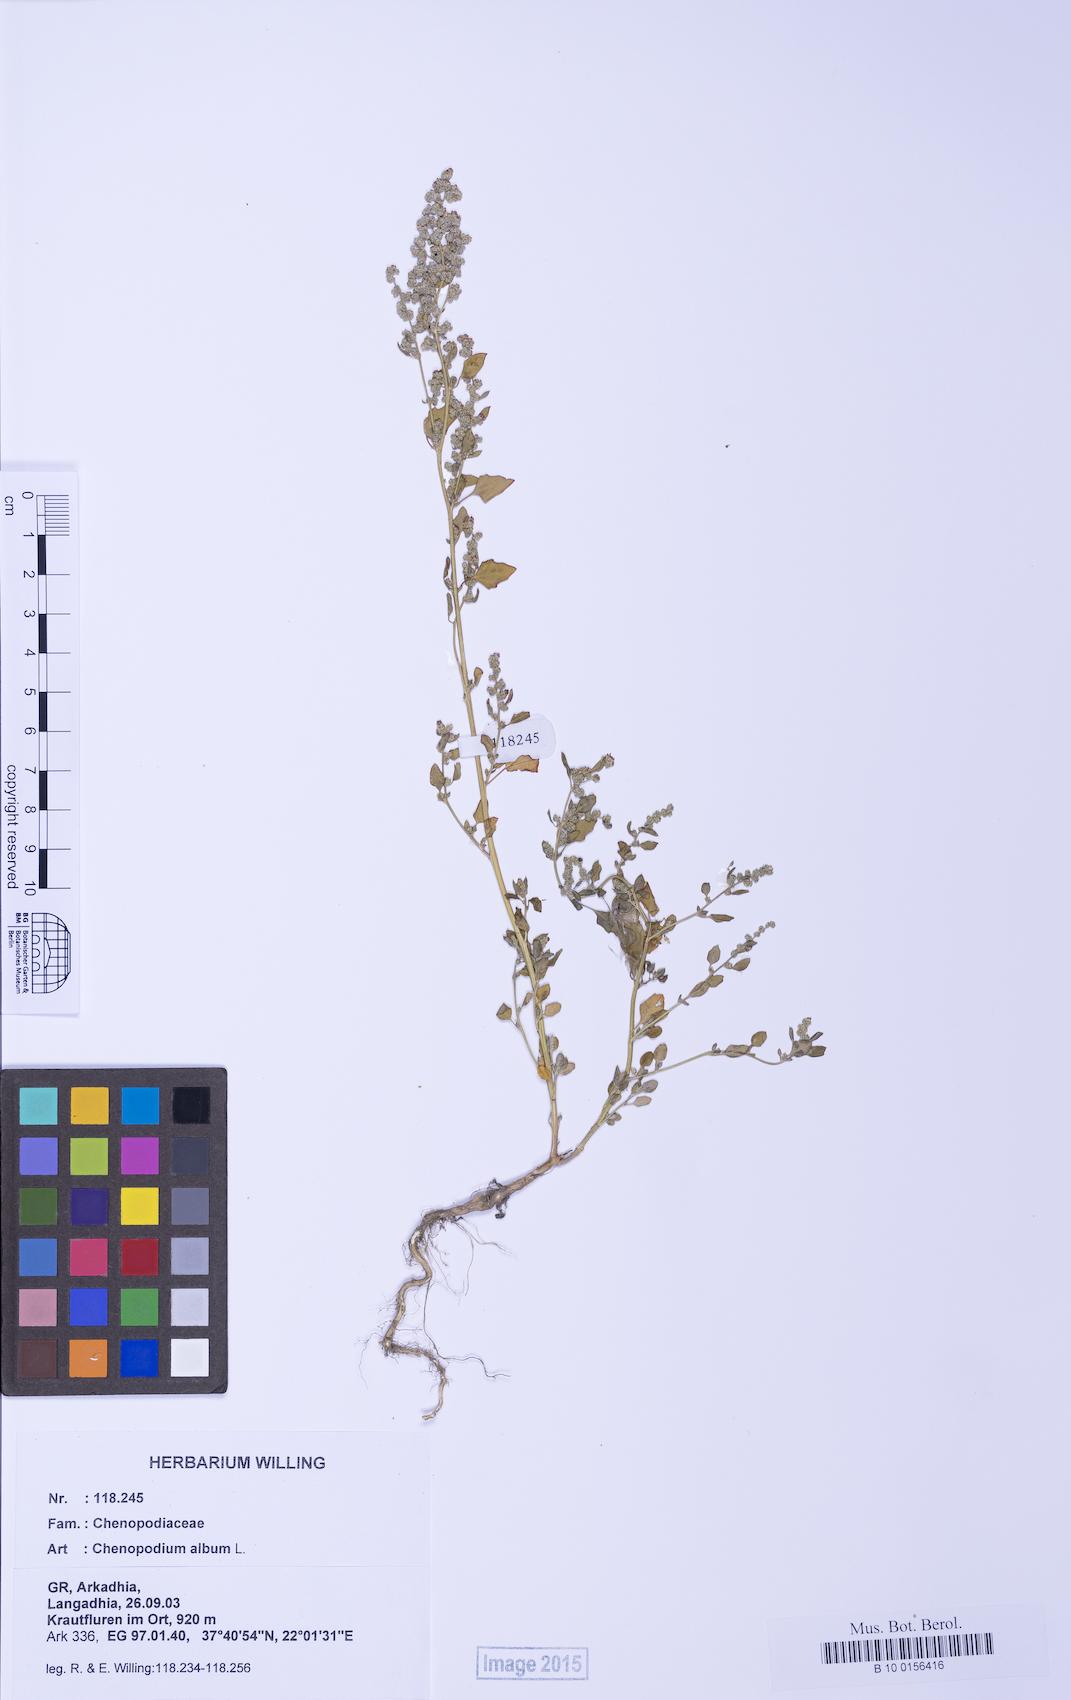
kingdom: Plantae
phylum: Tracheophyta
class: Magnoliopsida
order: Caryophyllales
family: Amaranthaceae
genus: Chenopodium
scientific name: Chenopodium album
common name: Fat-hen
